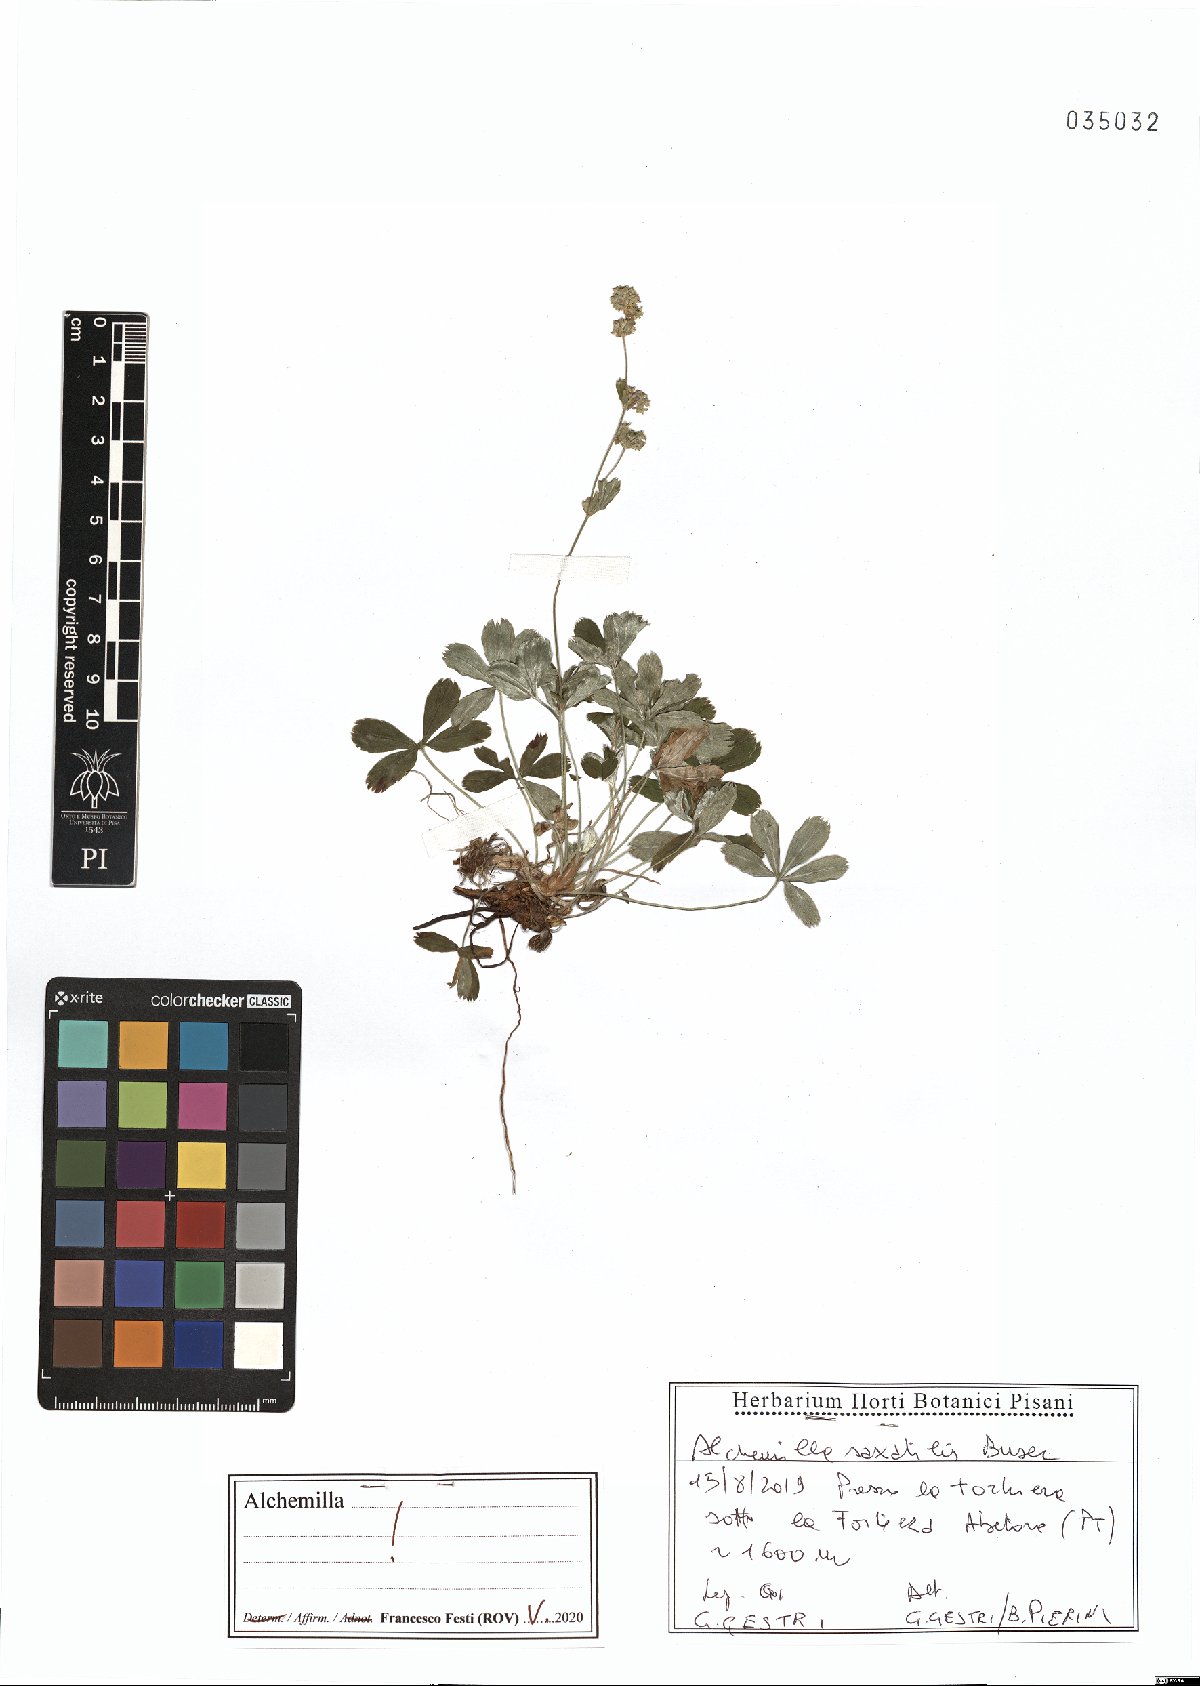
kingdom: Plantae
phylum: Tracheophyta
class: Magnoliopsida
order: Rosales
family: Rosaceae
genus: Alchemilla
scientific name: Alchemilla saxatilis
